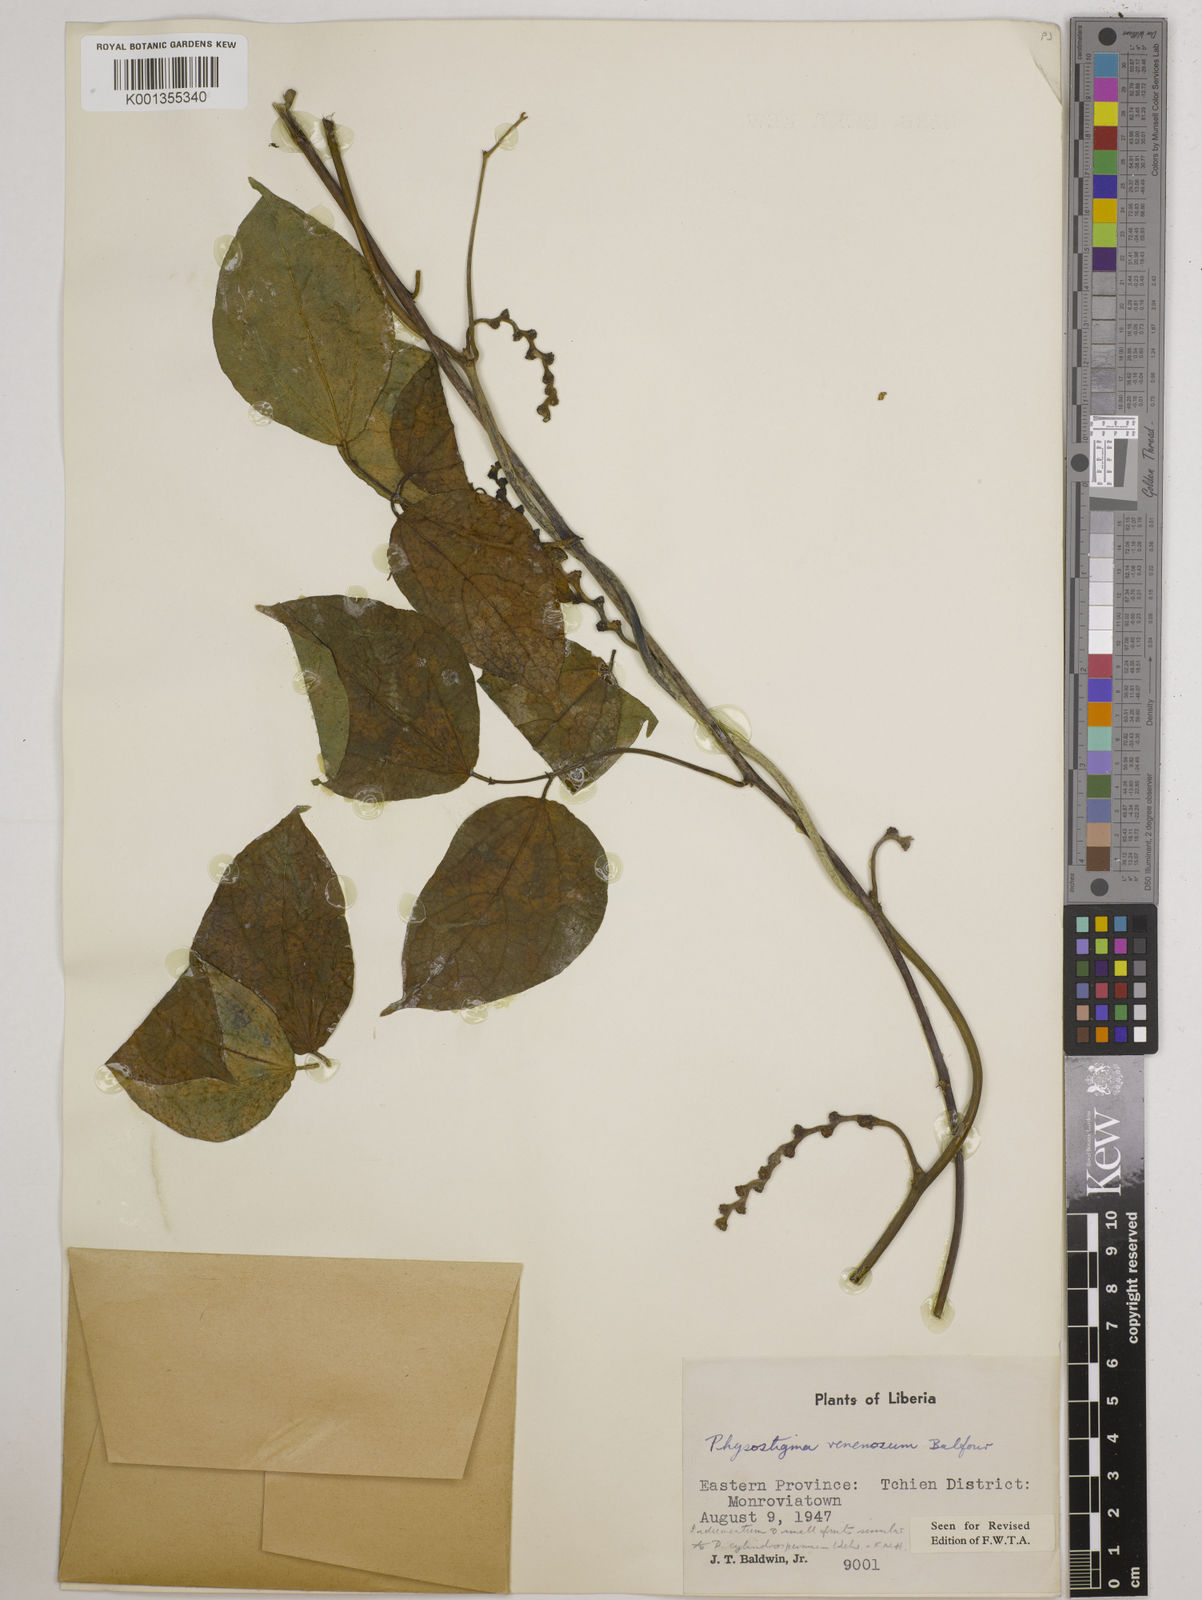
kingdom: Plantae
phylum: Tracheophyta
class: Magnoliopsida
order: Fabales
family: Fabaceae
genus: Physostigma
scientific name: Physostigma venenosum
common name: Calabar-bean
